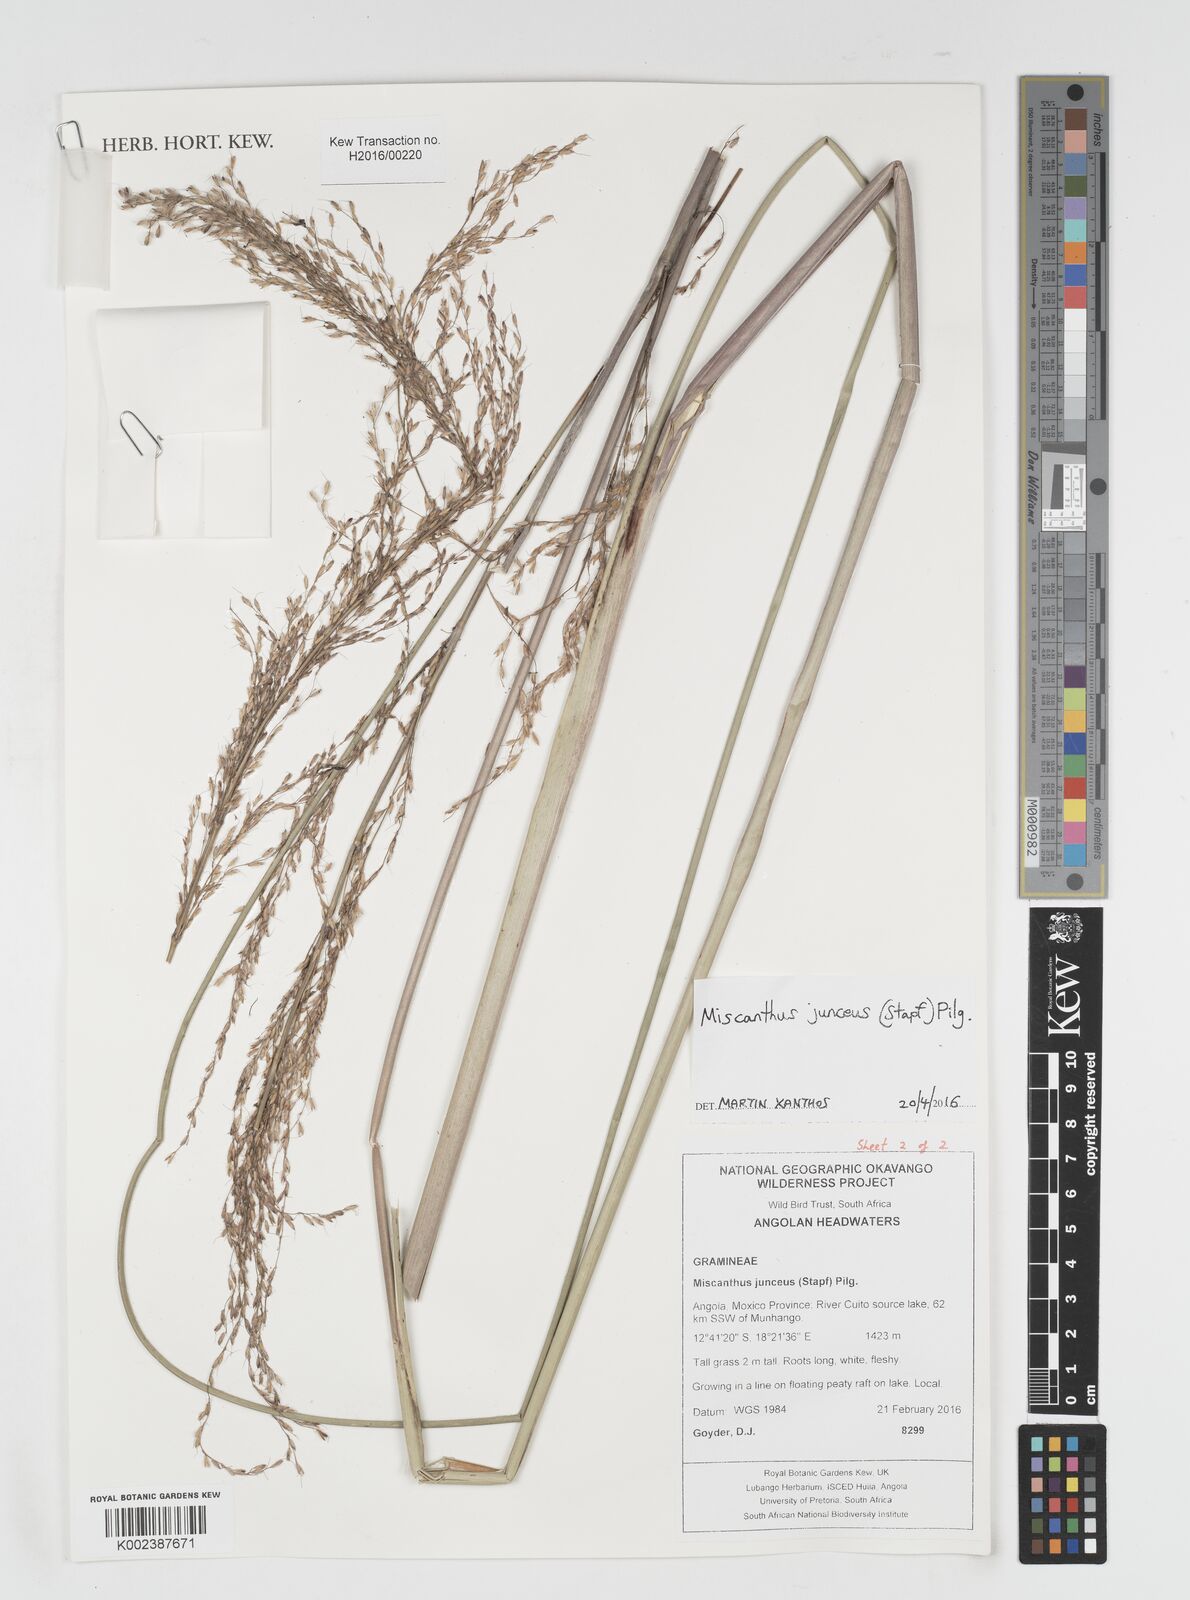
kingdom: Plantae
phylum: Tracheophyta
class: Liliopsida
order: Poales
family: Poaceae
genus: Miscanthidium
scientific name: Miscanthidium junceum
